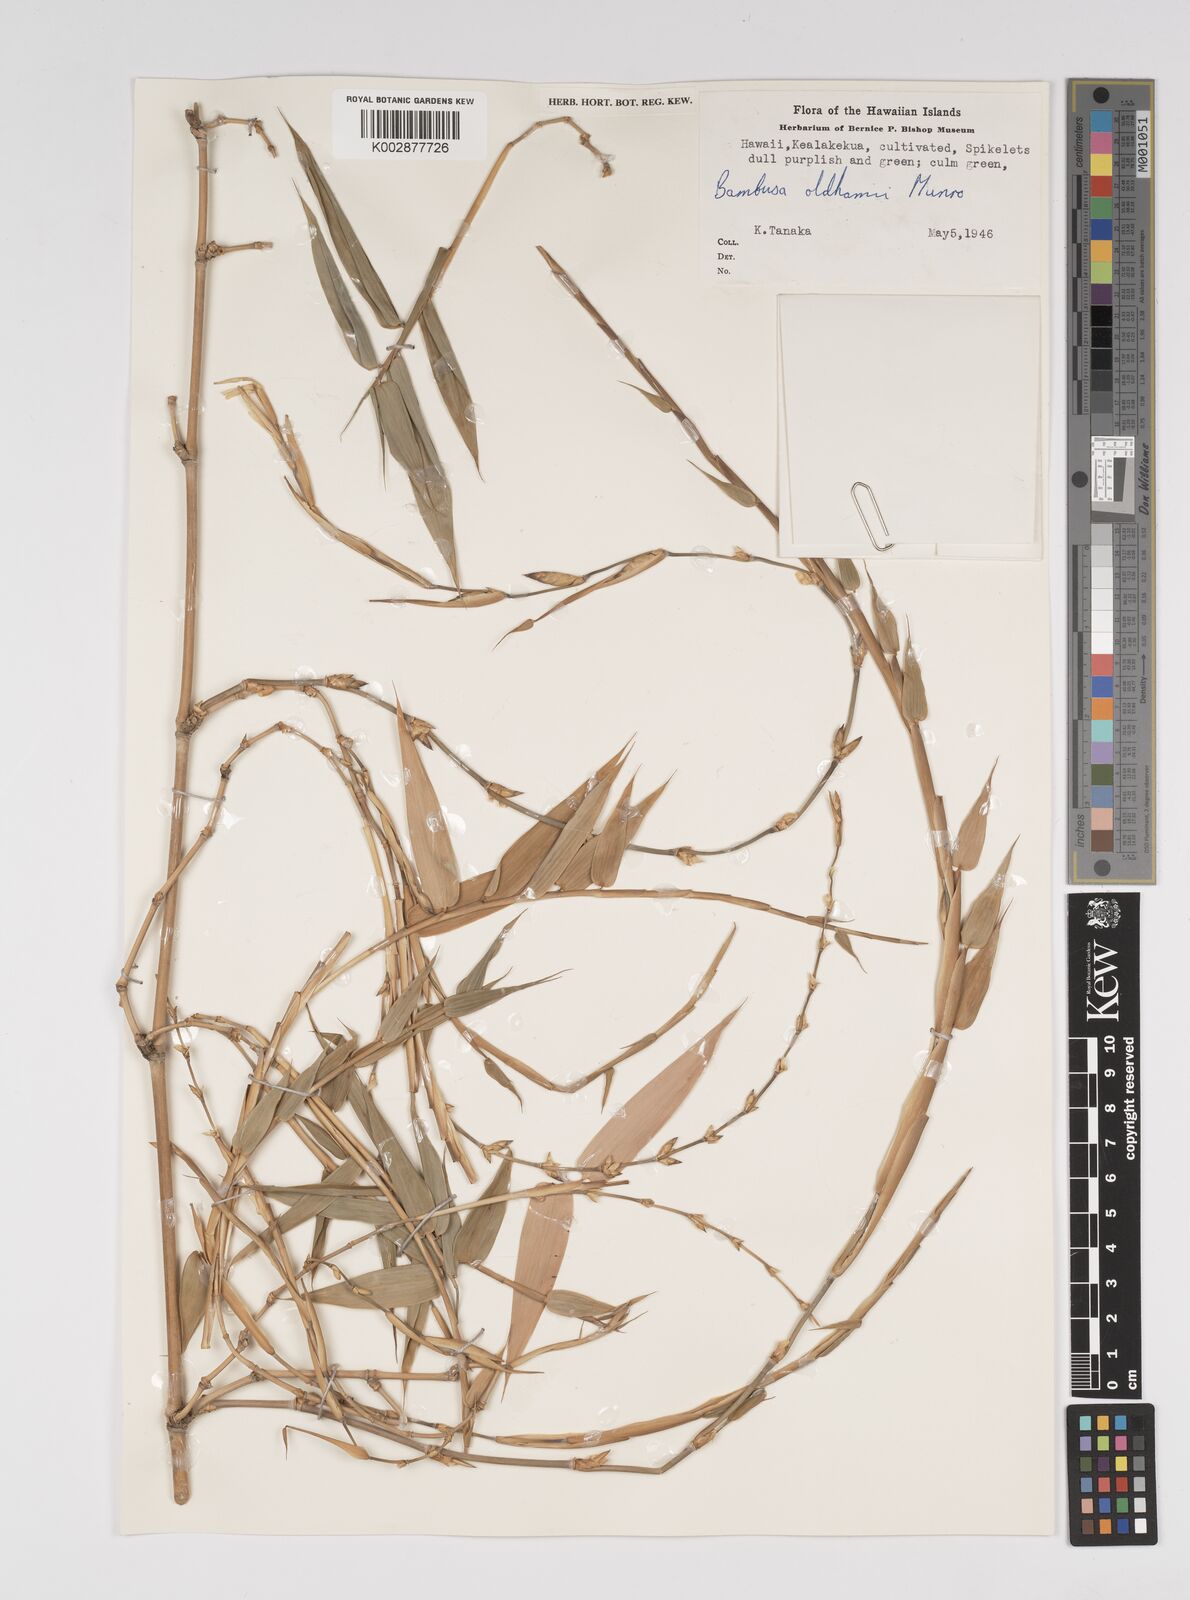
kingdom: Plantae
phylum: Tracheophyta
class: Liliopsida
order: Poales
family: Poaceae
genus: Bambusa
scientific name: Bambusa oldhamii
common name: Giant timber bamboo
